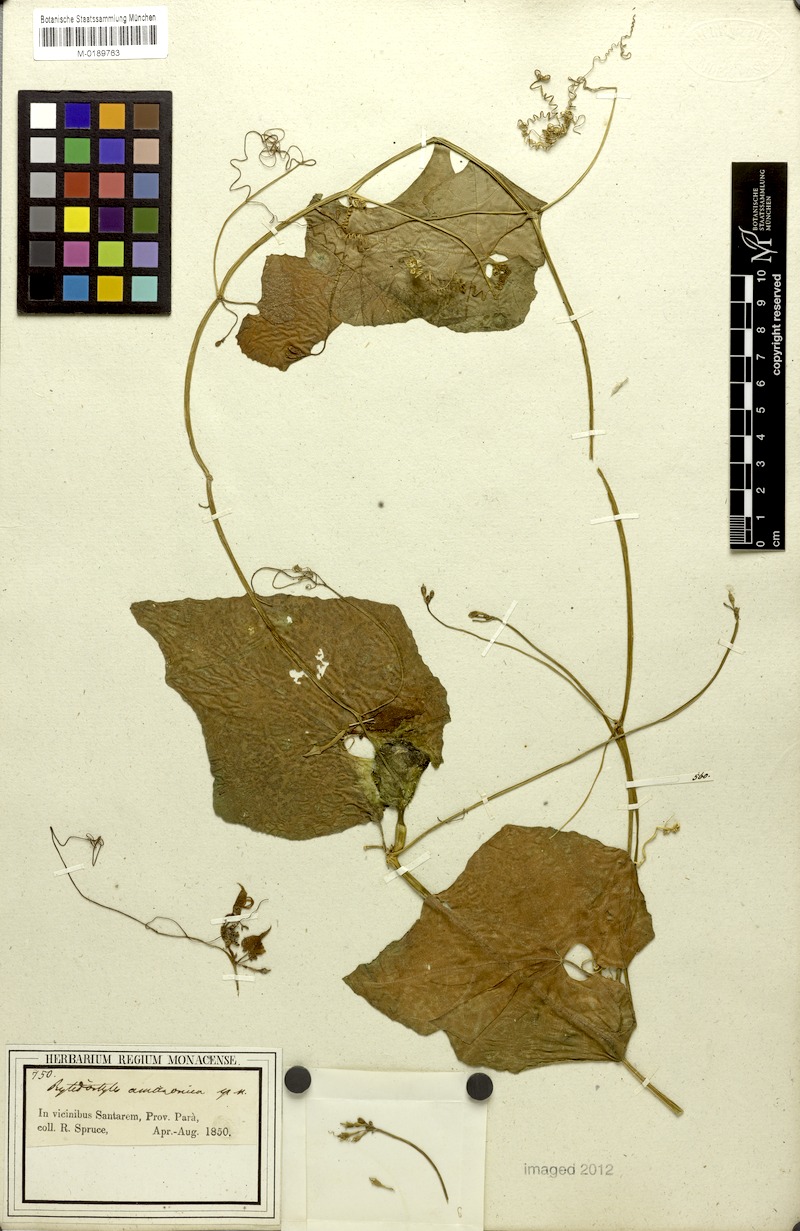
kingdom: Plantae
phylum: Tracheophyta
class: Magnoliopsida
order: Cucurbitales
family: Cucurbitaceae
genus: Cyclanthera
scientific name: Cyclanthera carthagenensis
